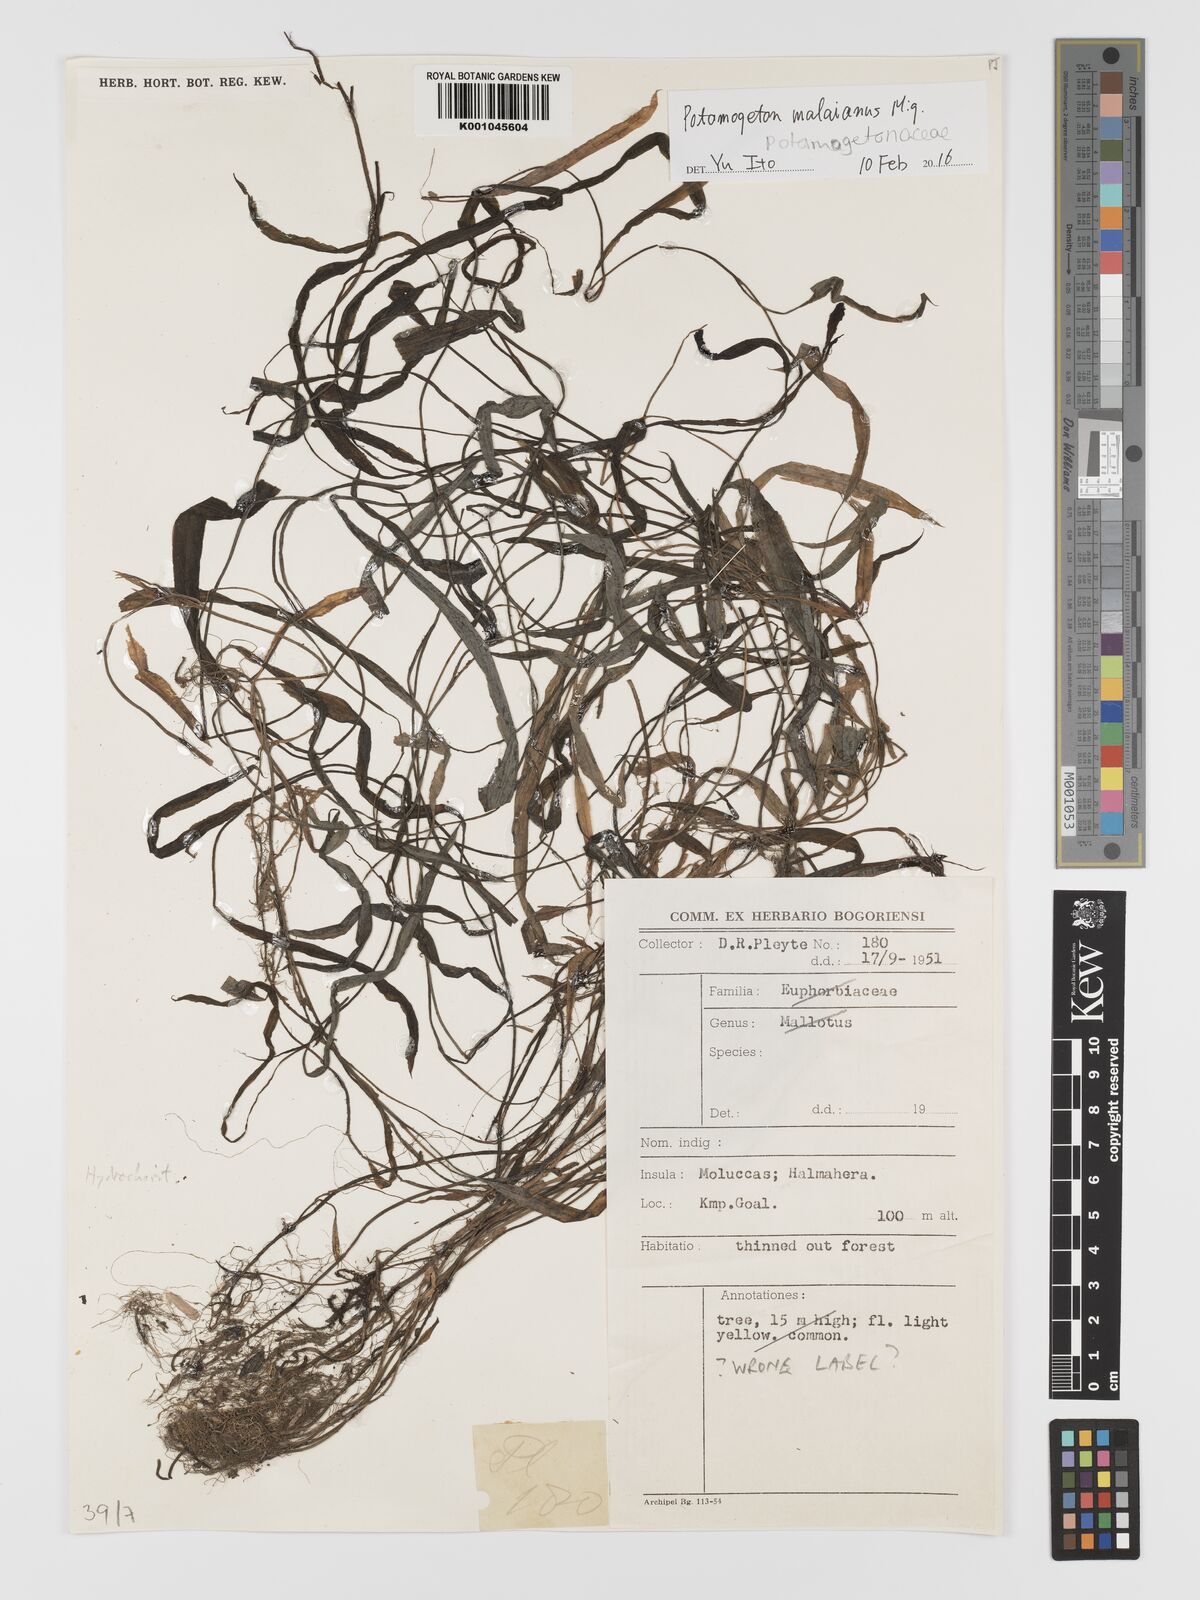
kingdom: Plantae
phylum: Tracheophyta
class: Liliopsida
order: Alismatales
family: Potamogetonaceae
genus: Potamogeton
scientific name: Potamogeton nodosus
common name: Loddon pondweed
